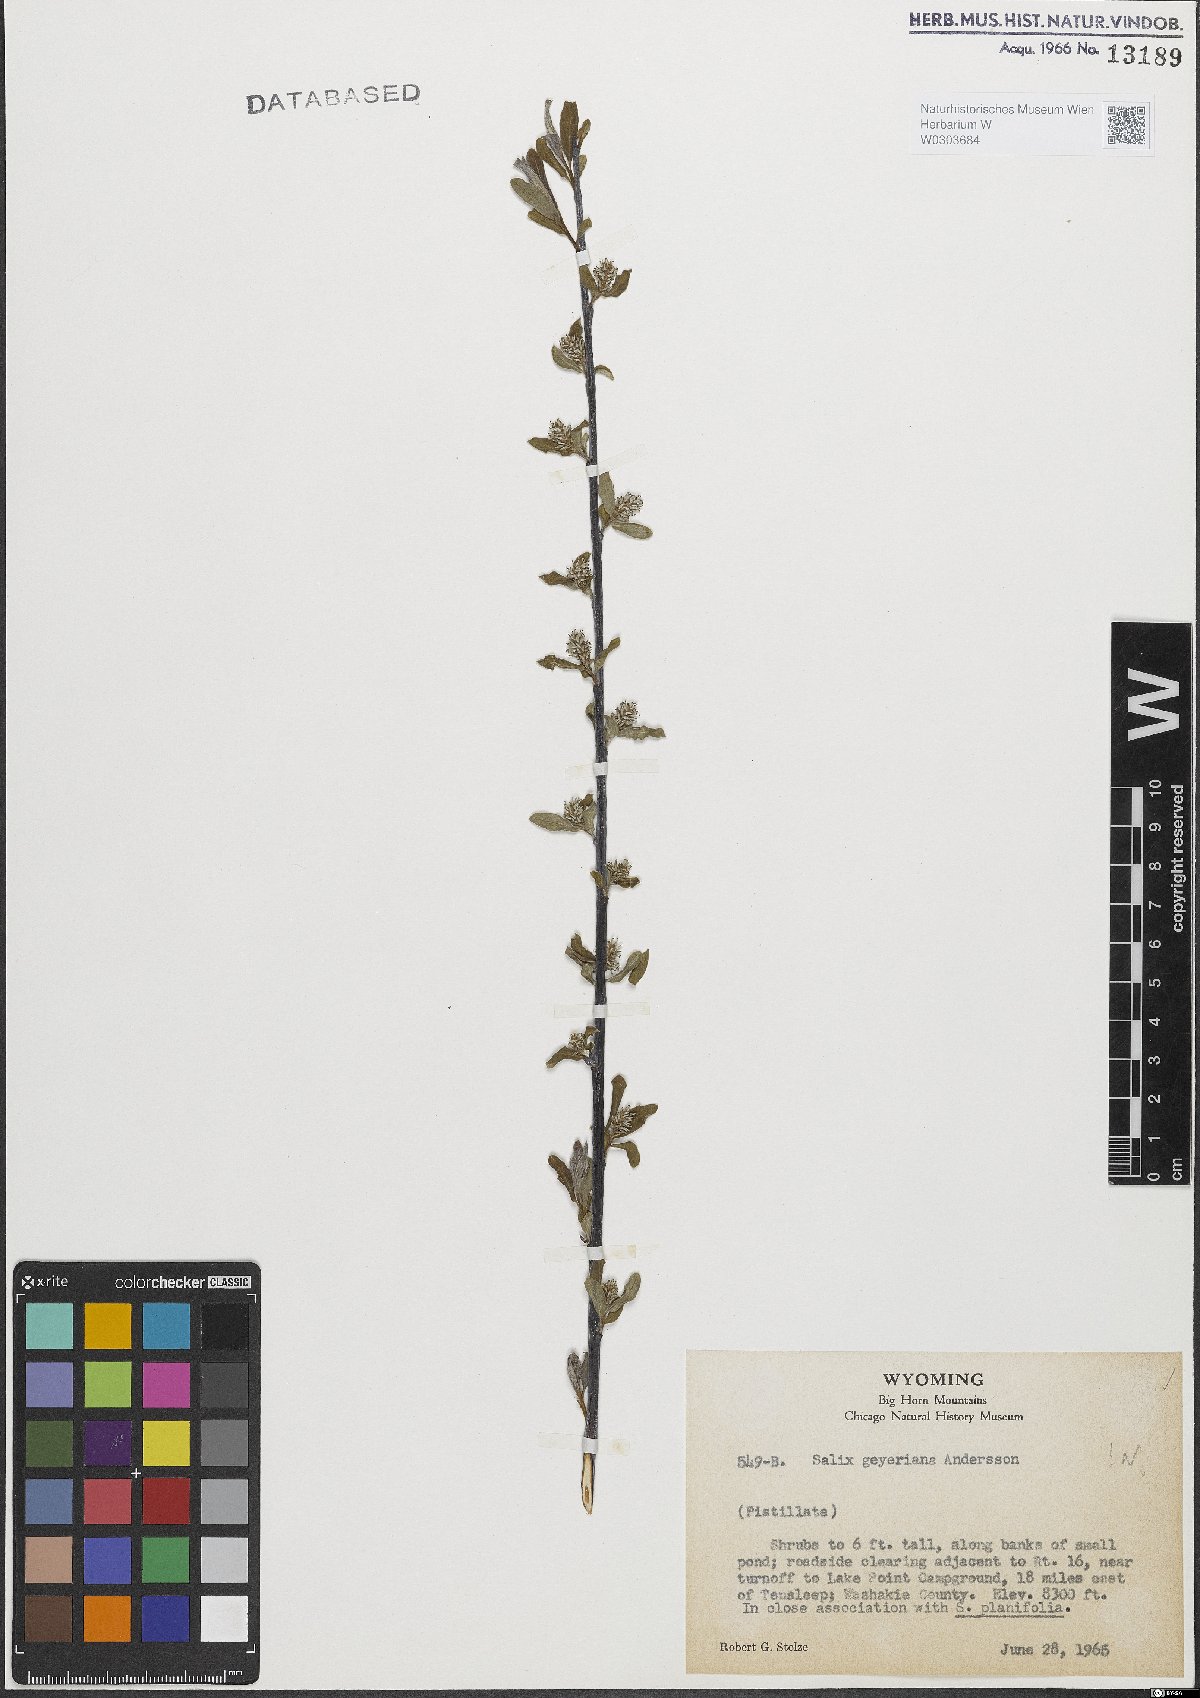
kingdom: Plantae
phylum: Tracheophyta
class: Magnoliopsida
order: Malpighiales
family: Salicaceae
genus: Salix
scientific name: Salix geyeriana
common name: Geyer's willow
